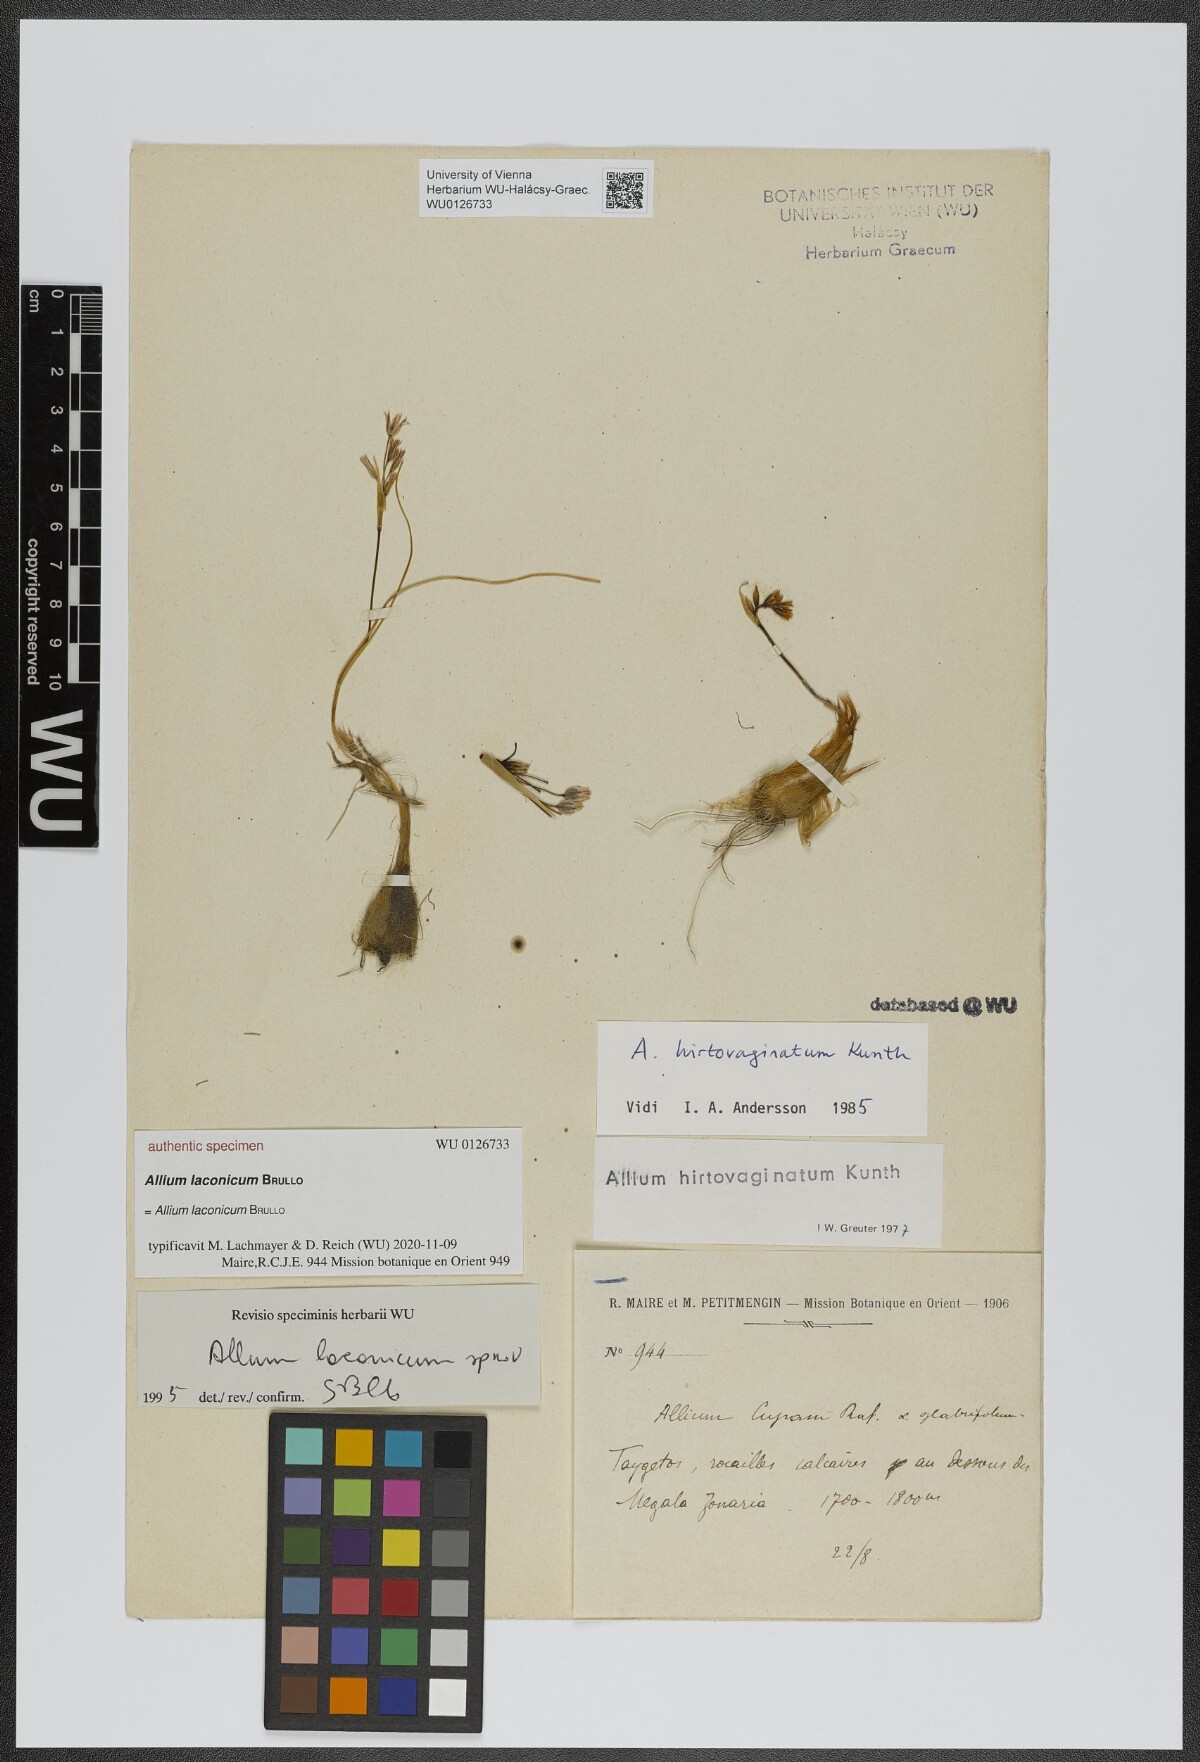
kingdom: Plantae
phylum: Tracheophyta
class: Liliopsida
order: Asparagales
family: Amaryllidaceae
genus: Allium
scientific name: Allium
